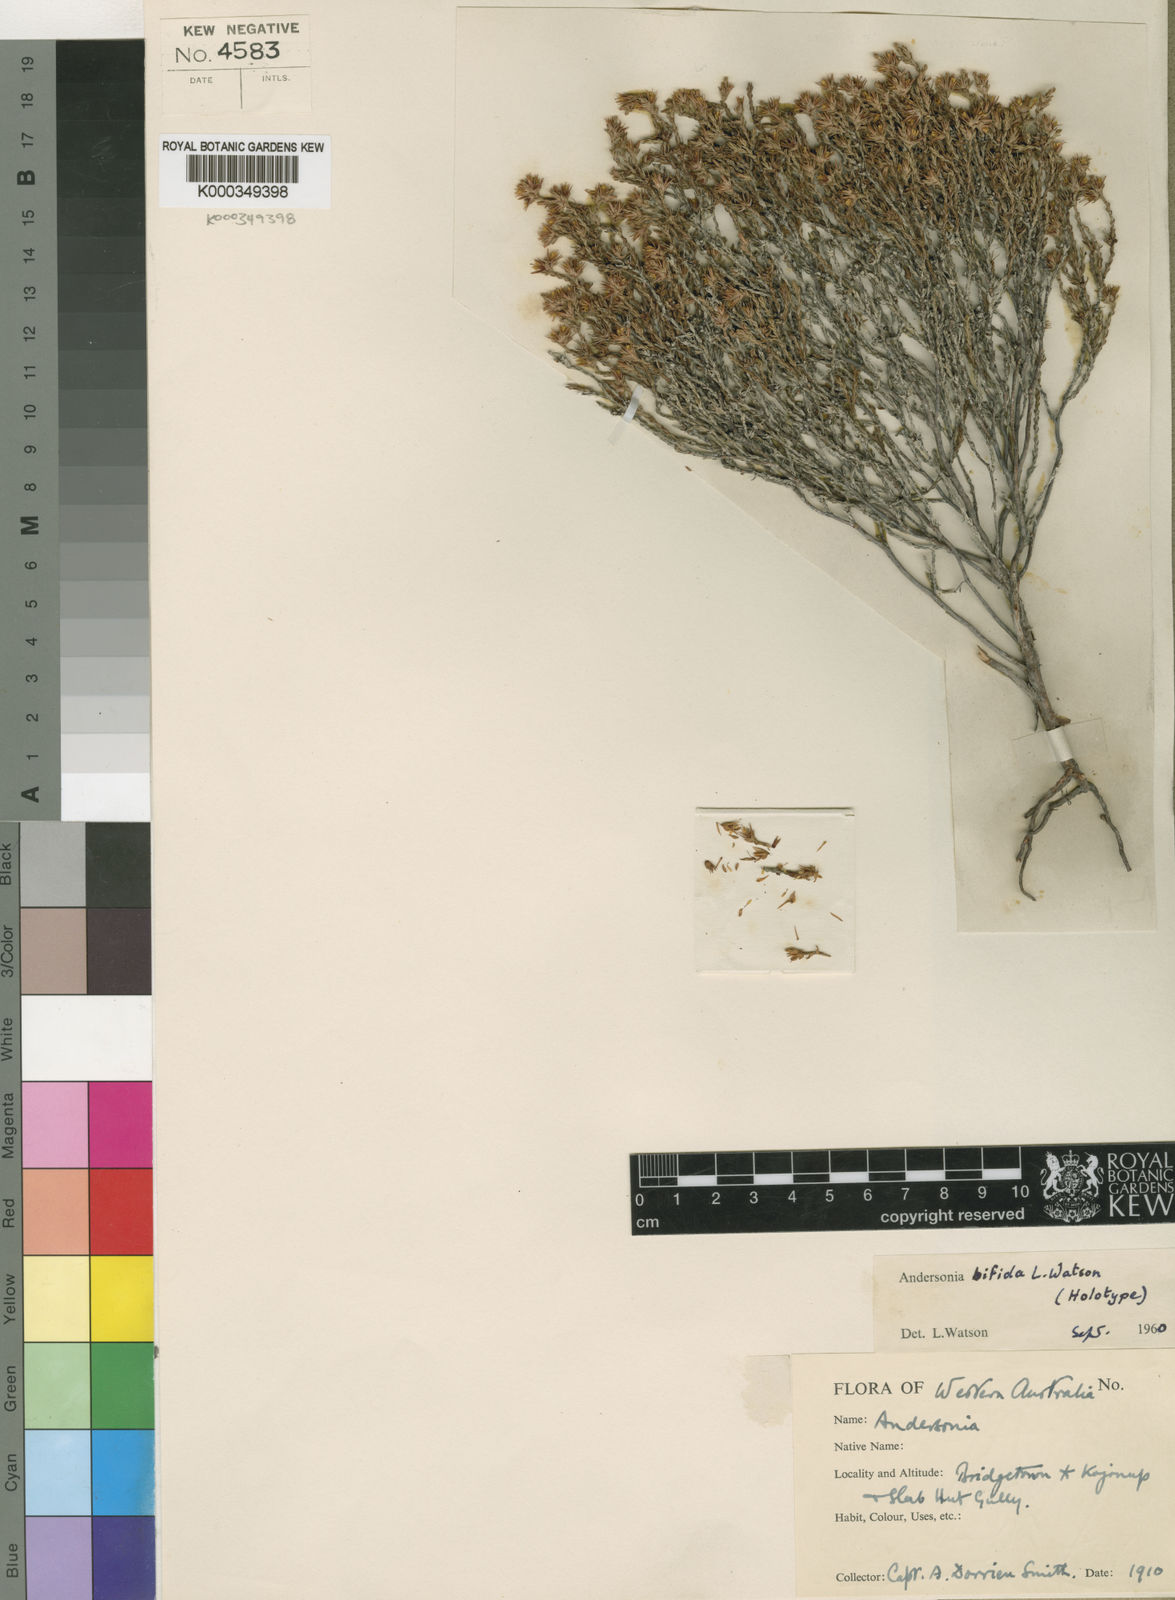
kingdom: Plantae
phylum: Tracheophyta
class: Magnoliopsida
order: Ericales
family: Ericaceae
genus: Andersonia
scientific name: Andersonia bifida
